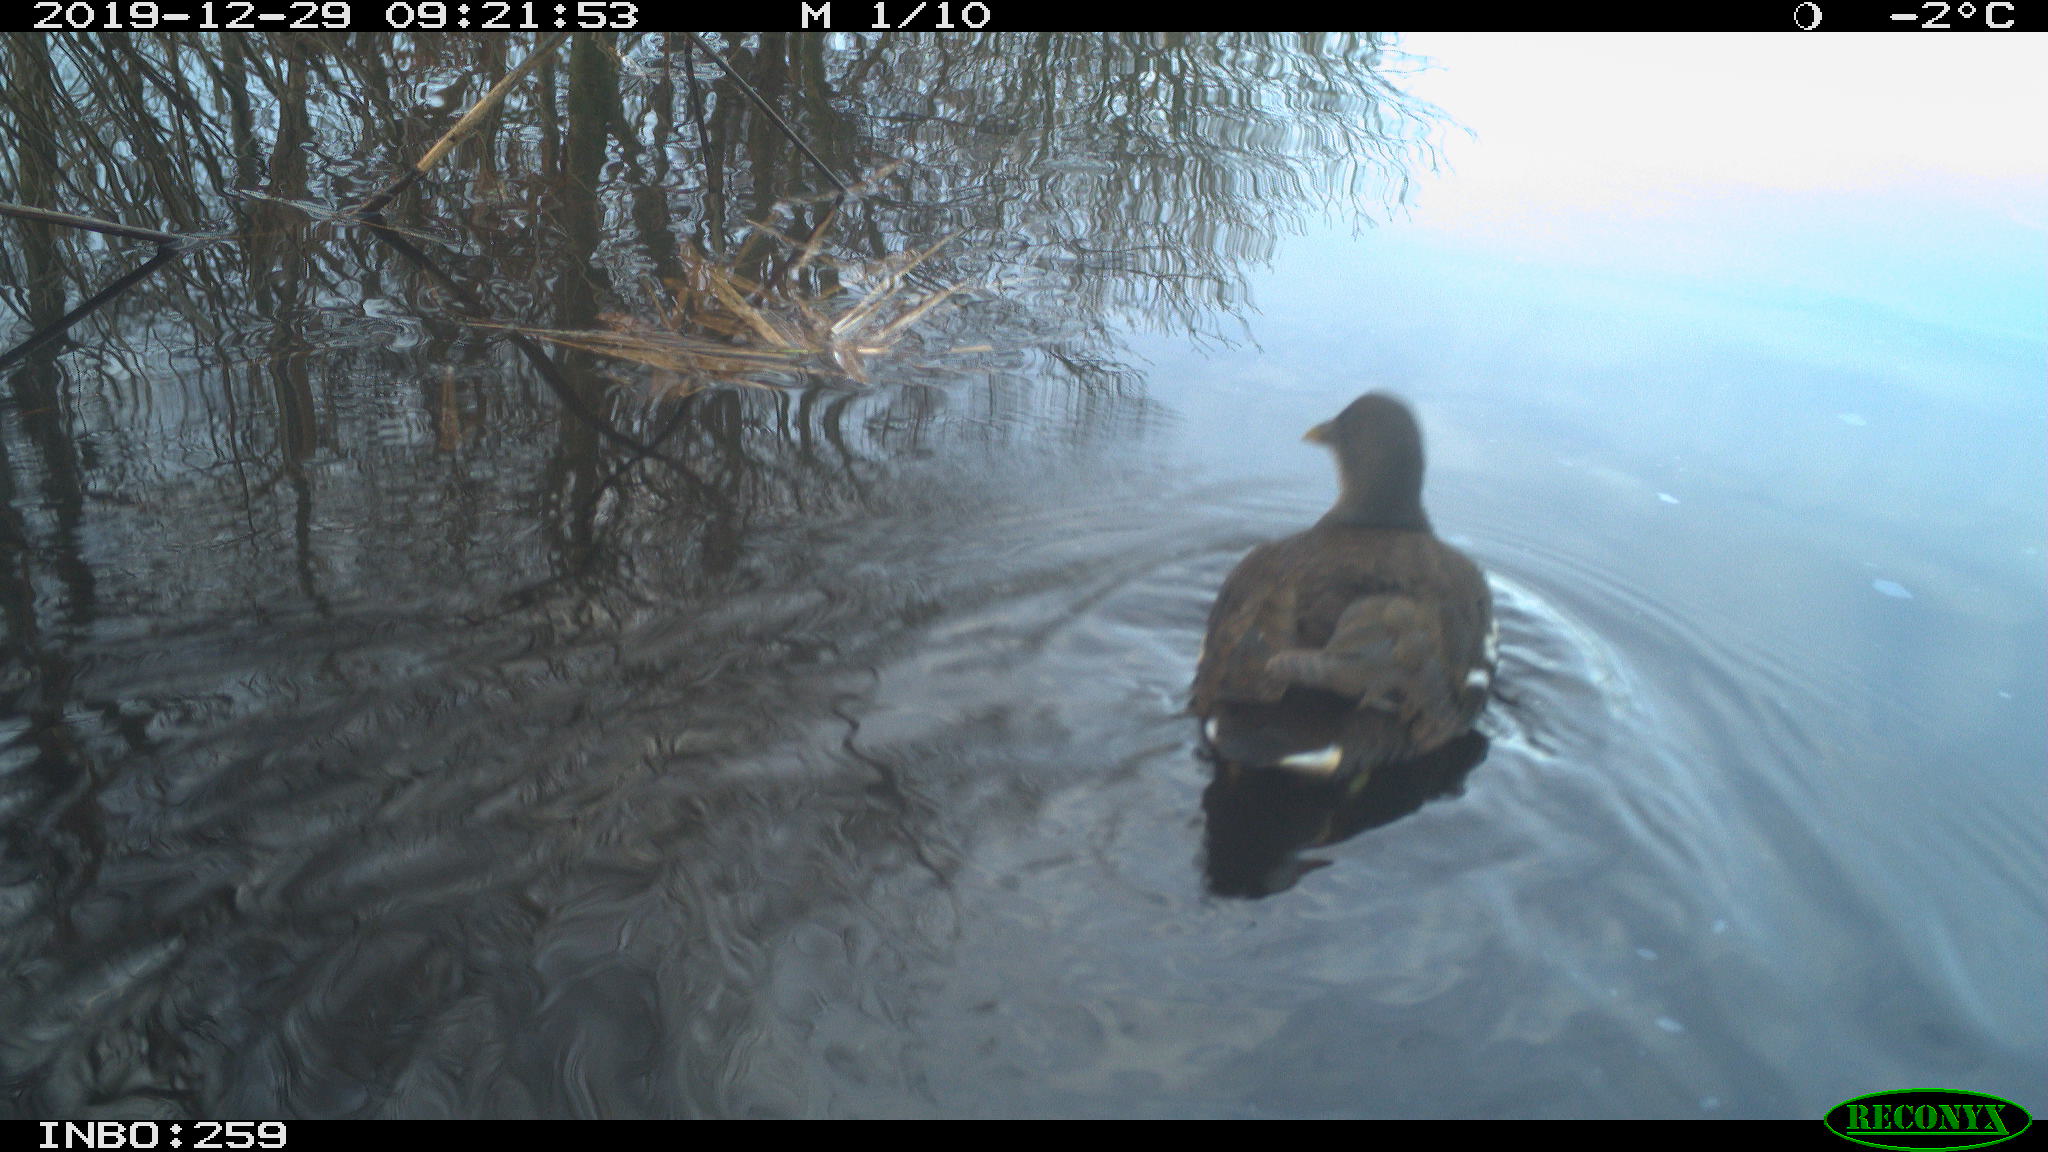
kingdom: Animalia
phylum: Chordata
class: Aves
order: Gruiformes
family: Rallidae
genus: Gallinula
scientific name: Gallinula chloropus
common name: Common moorhen
